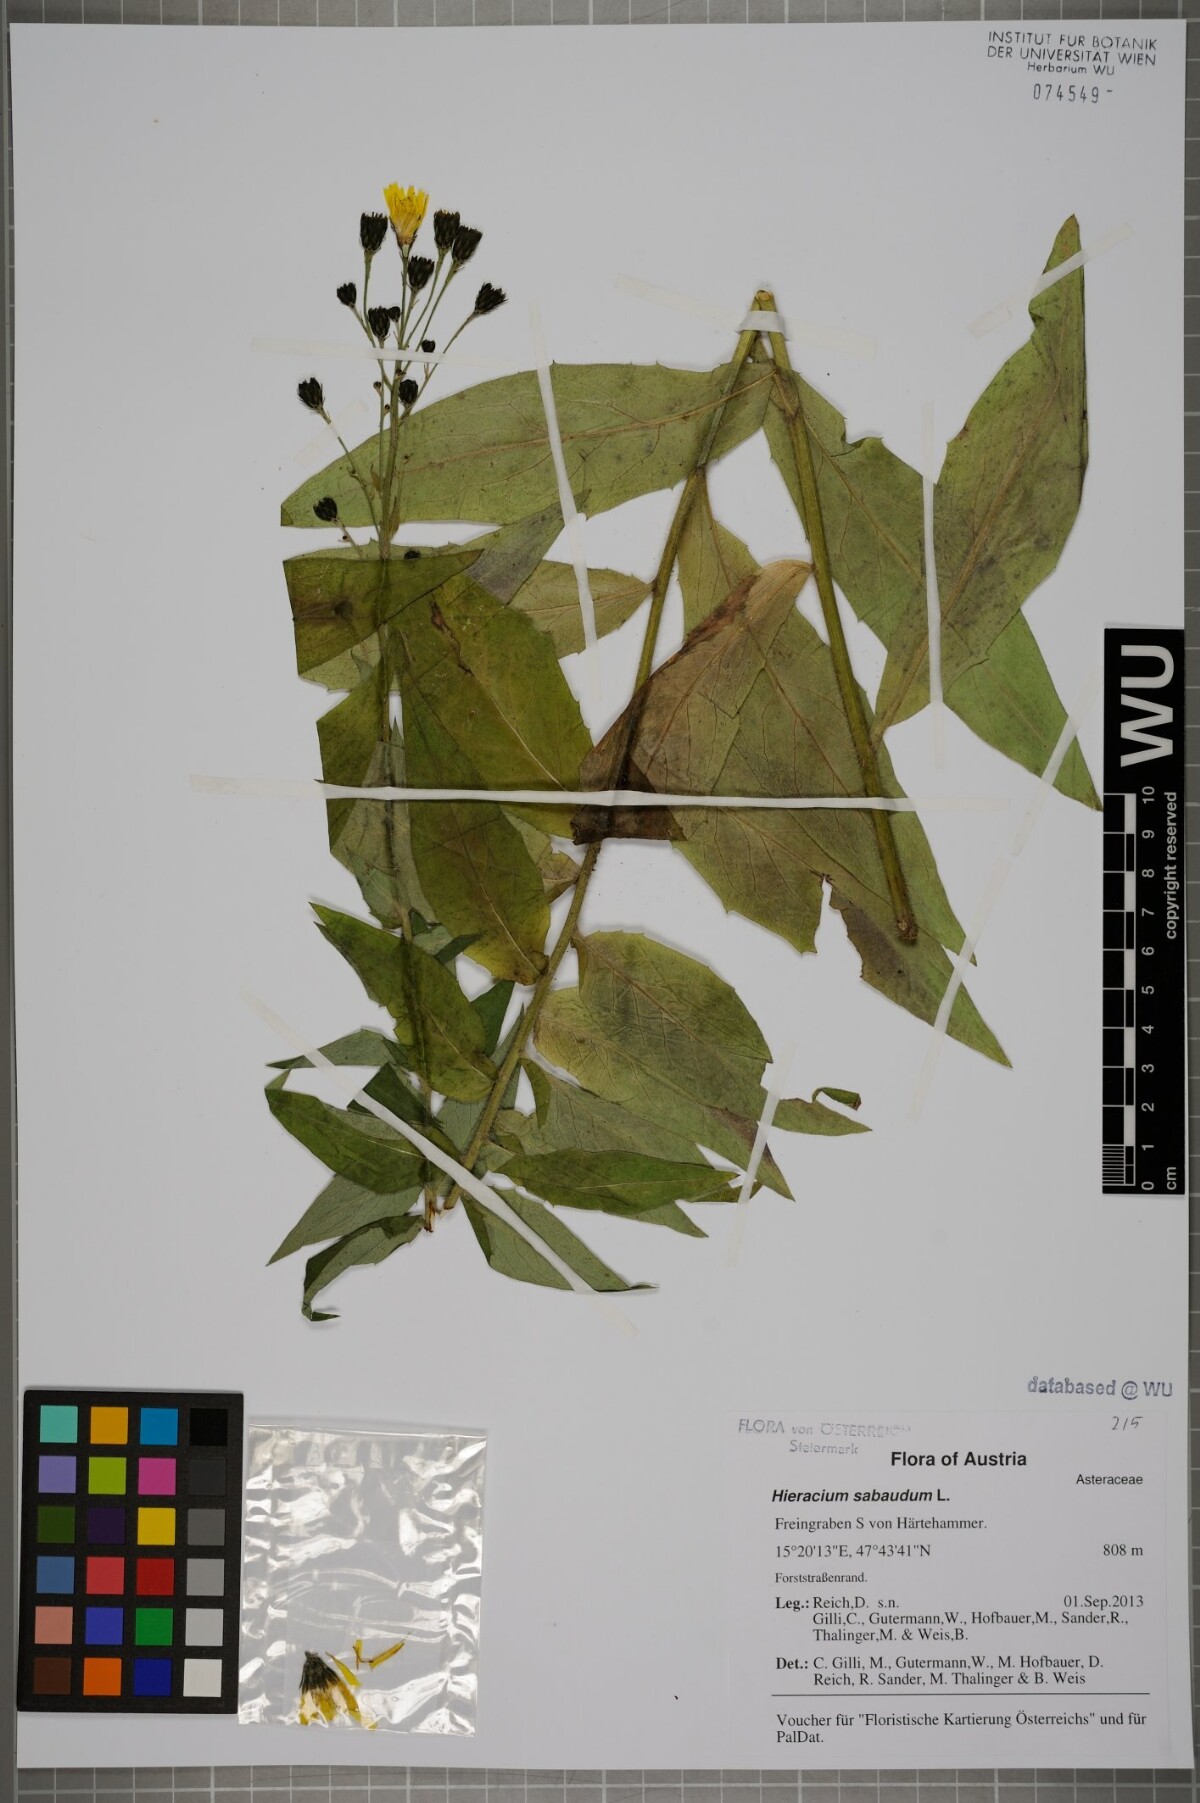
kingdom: Plantae
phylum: Tracheophyta
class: Magnoliopsida
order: Asterales
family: Asteraceae
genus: Hieracium
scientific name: Hieracium sabaudum
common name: New england hawkweed
